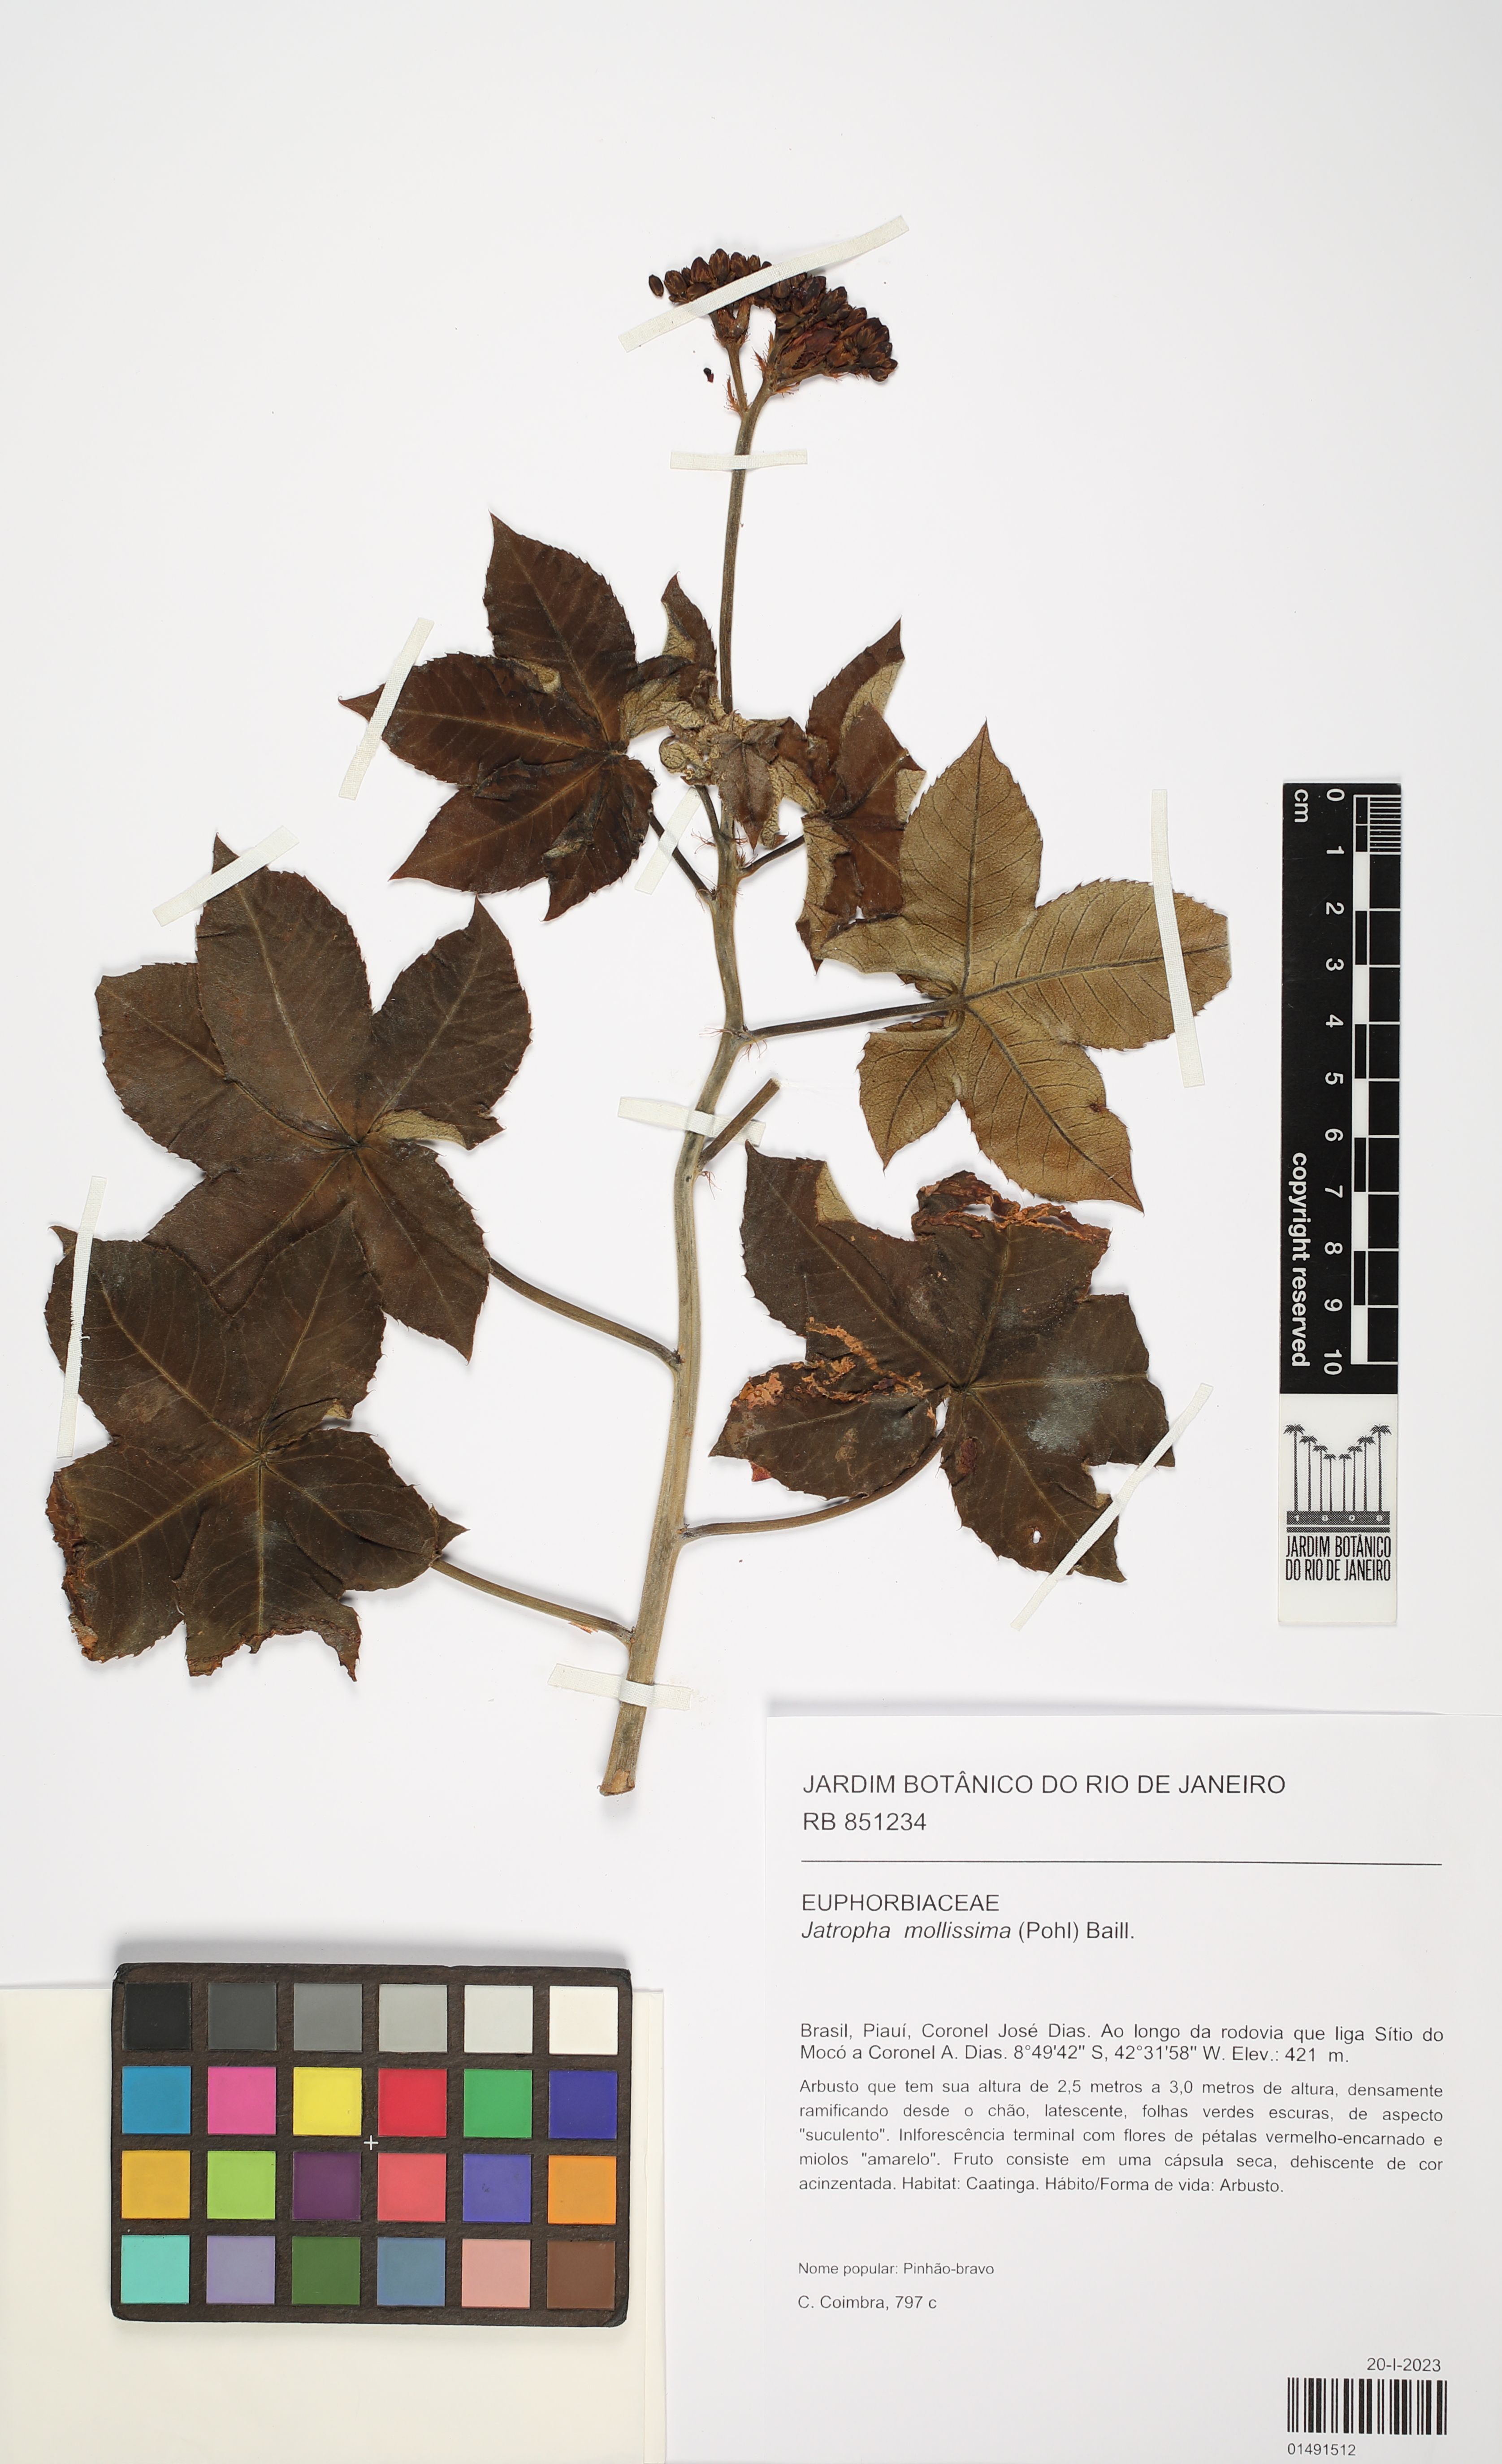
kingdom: Plantae
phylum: Tracheophyta
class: Magnoliopsida
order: Malpighiales
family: Euphorbiaceae
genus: Jatropha
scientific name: Jatropha mollissima
